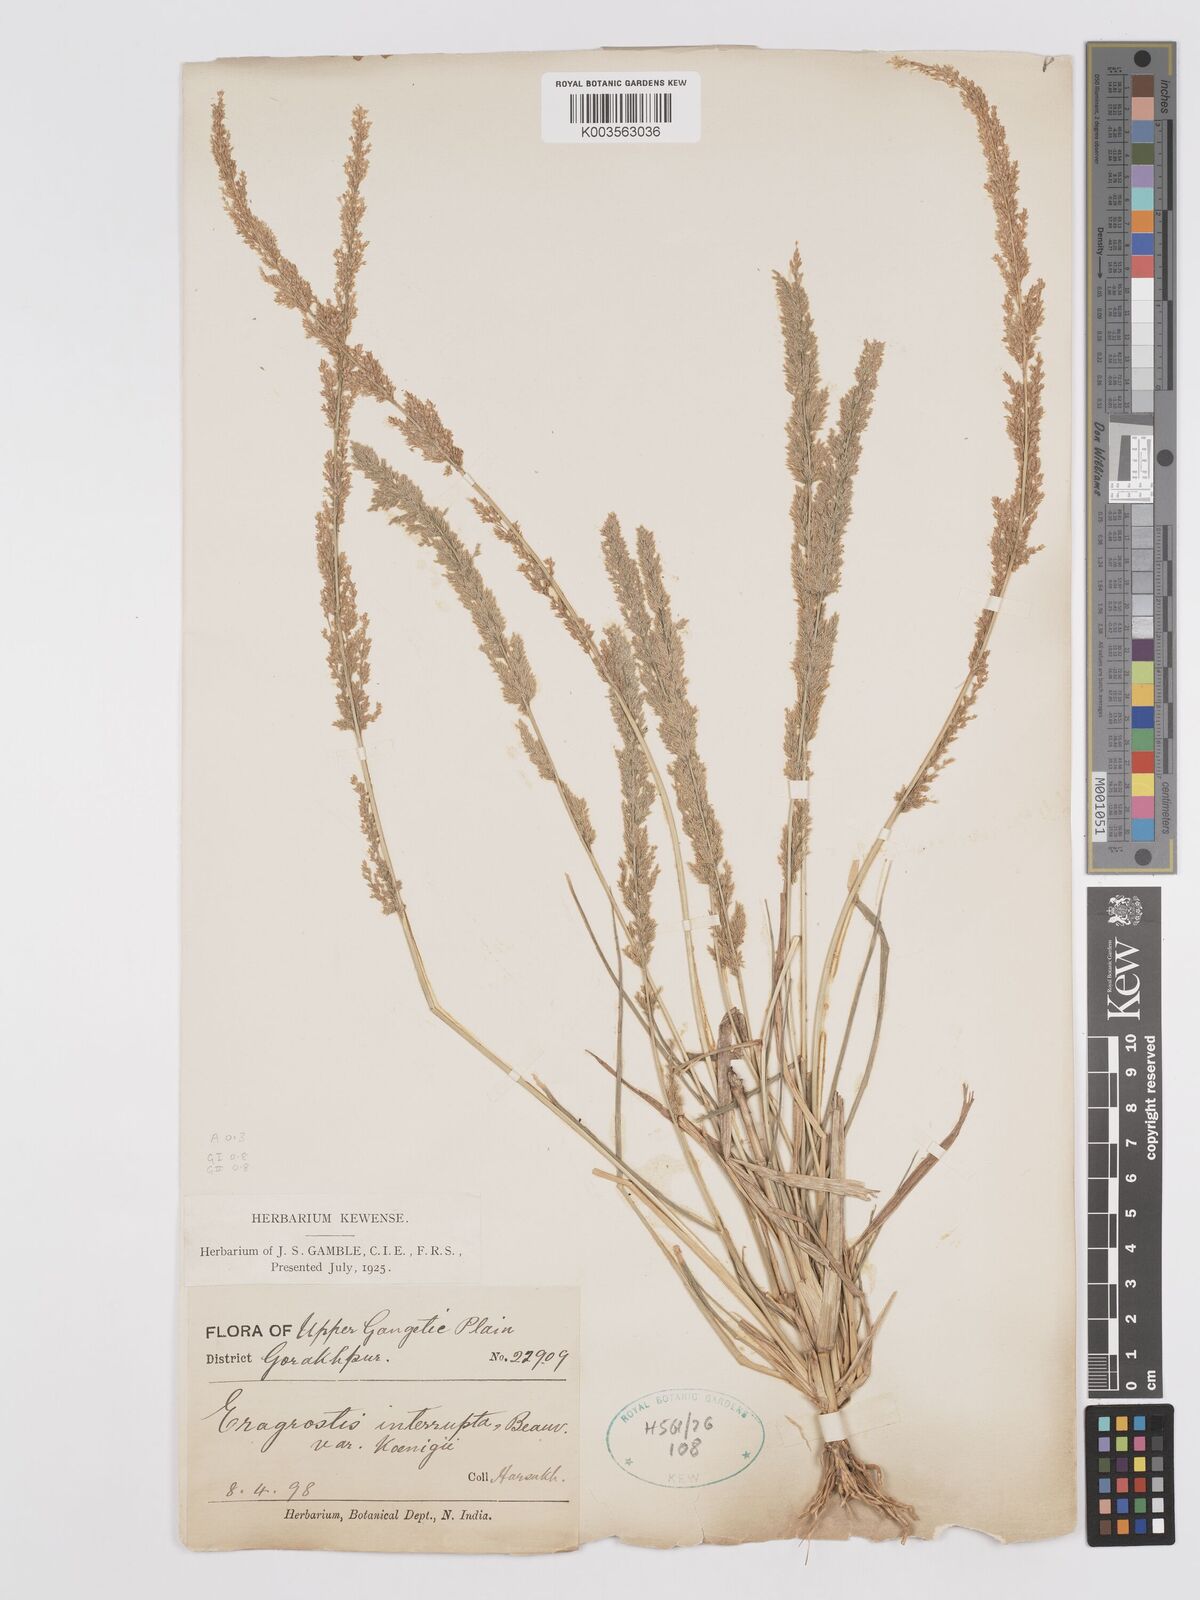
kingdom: Plantae
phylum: Tracheophyta
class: Liliopsida
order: Poales
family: Poaceae
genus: Eragrostis
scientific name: Eragrostis japonica
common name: Pond lovegrass
